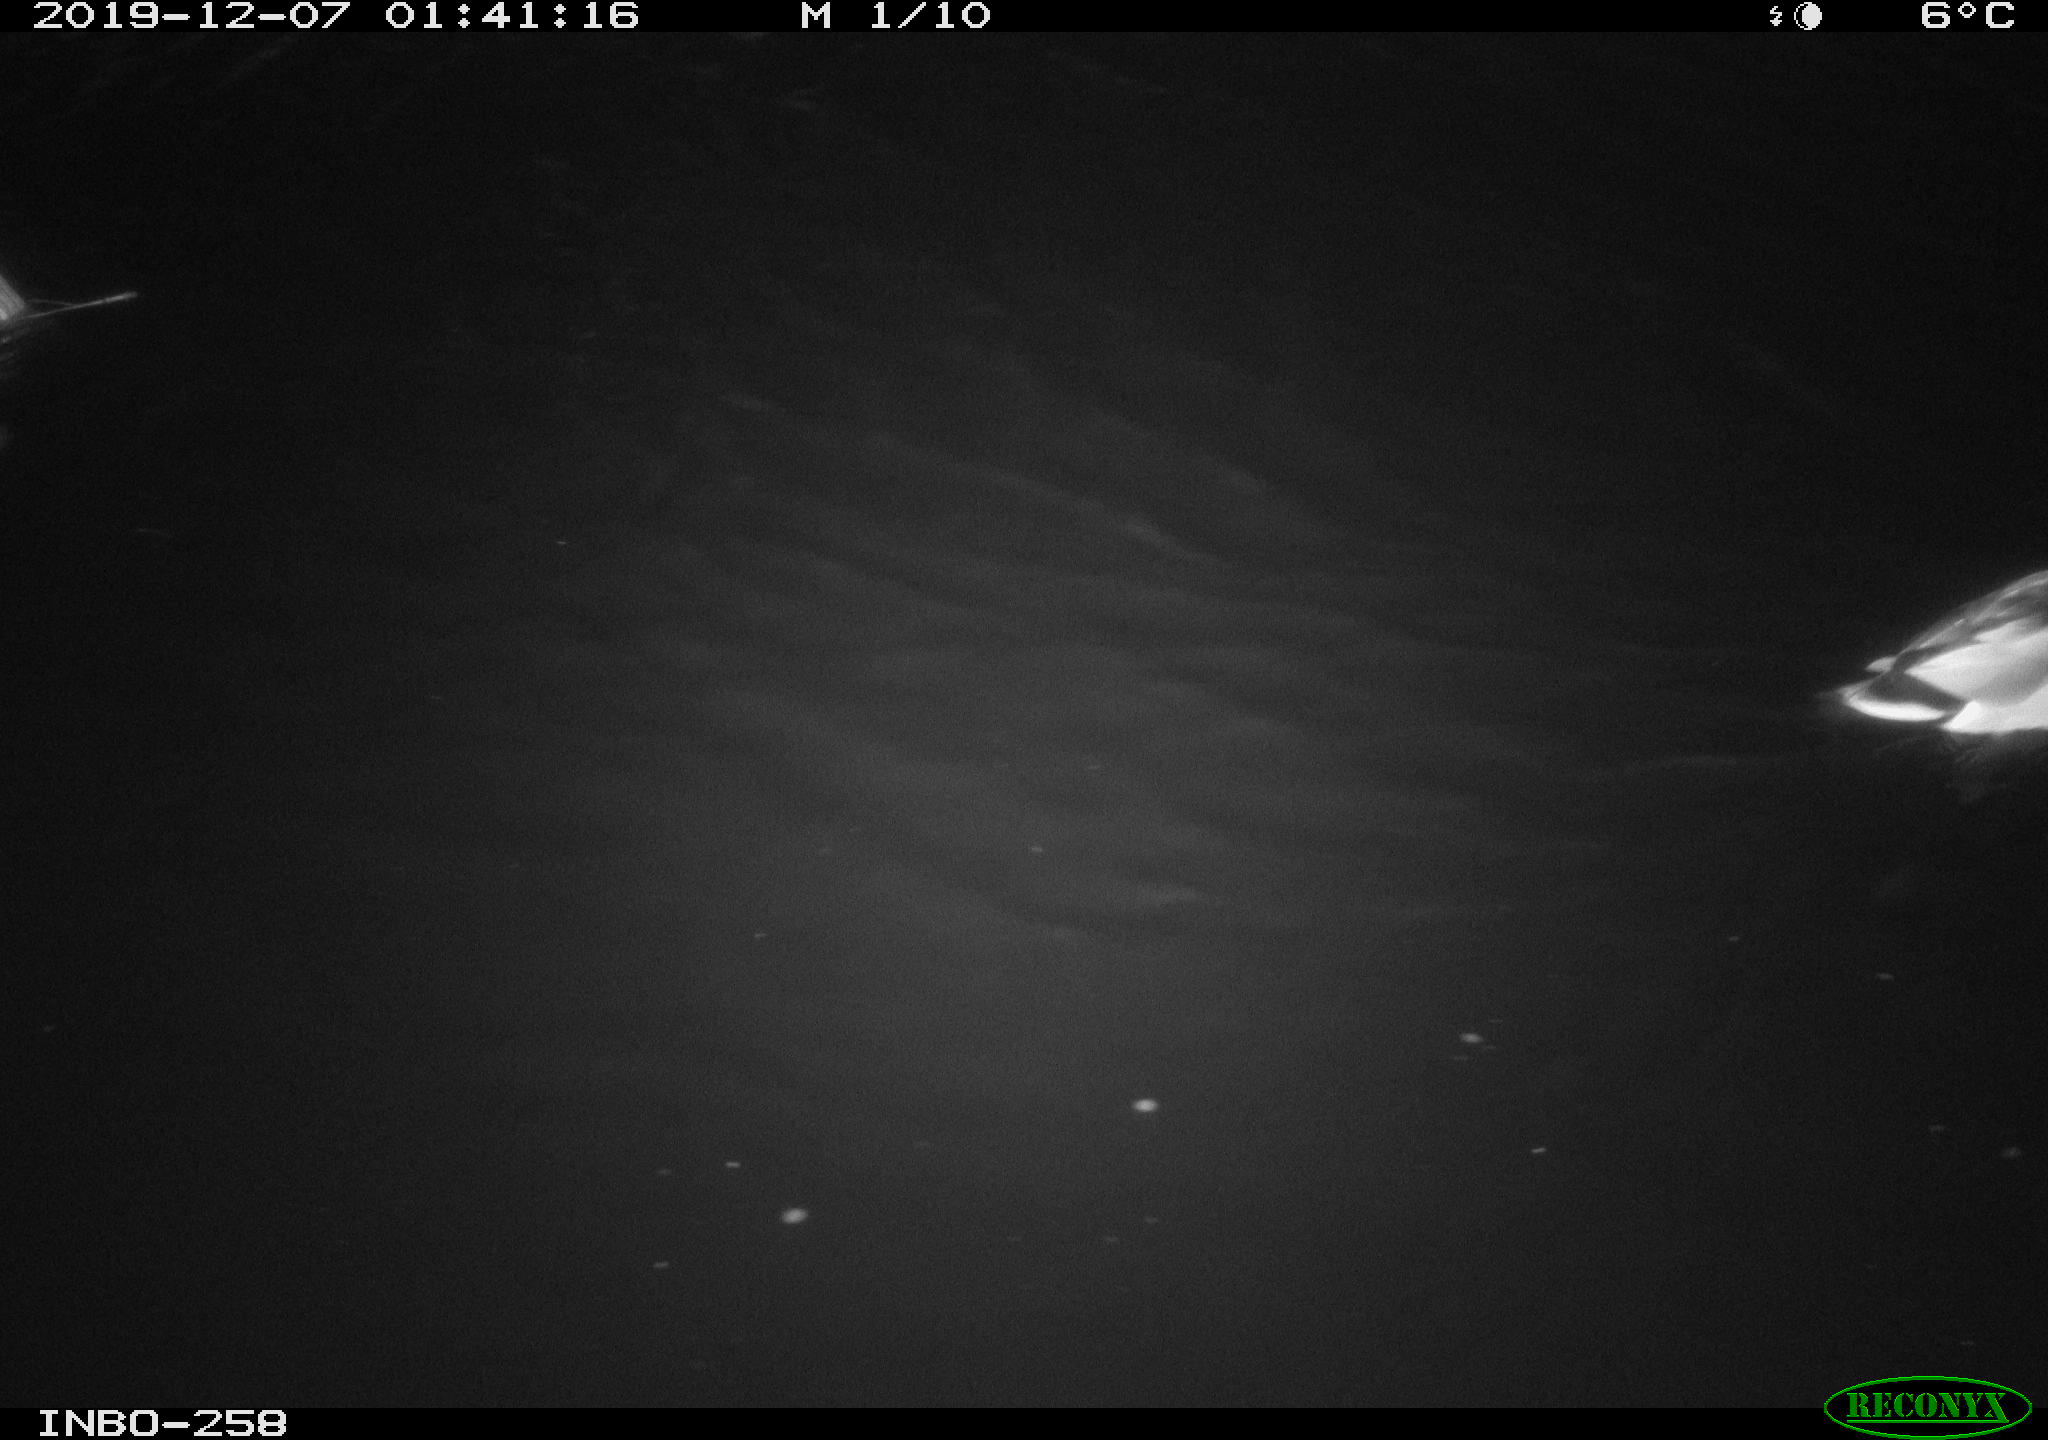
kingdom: Animalia
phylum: Chordata
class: Aves
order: Anseriformes
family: Anatidae
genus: Anas
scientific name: Anas platyrhynchos
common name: Mallard
